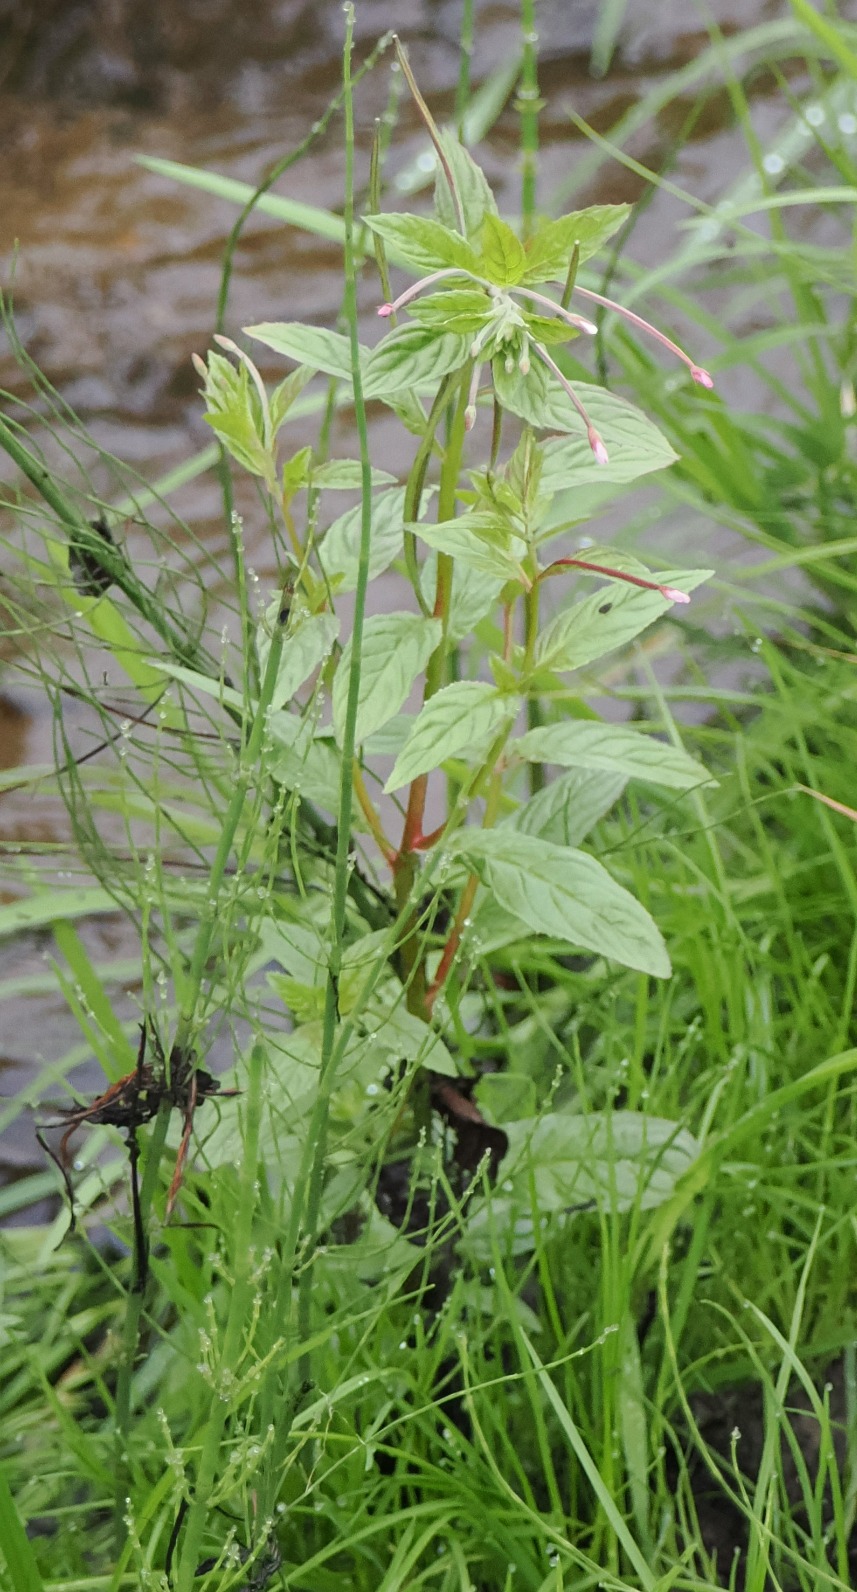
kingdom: Plantae
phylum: Tracheophyta
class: Magnoliopsida
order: Myrtales
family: Onagraceae
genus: Epilobium
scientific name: Epilobium roseum
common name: Rosen-dueurt
